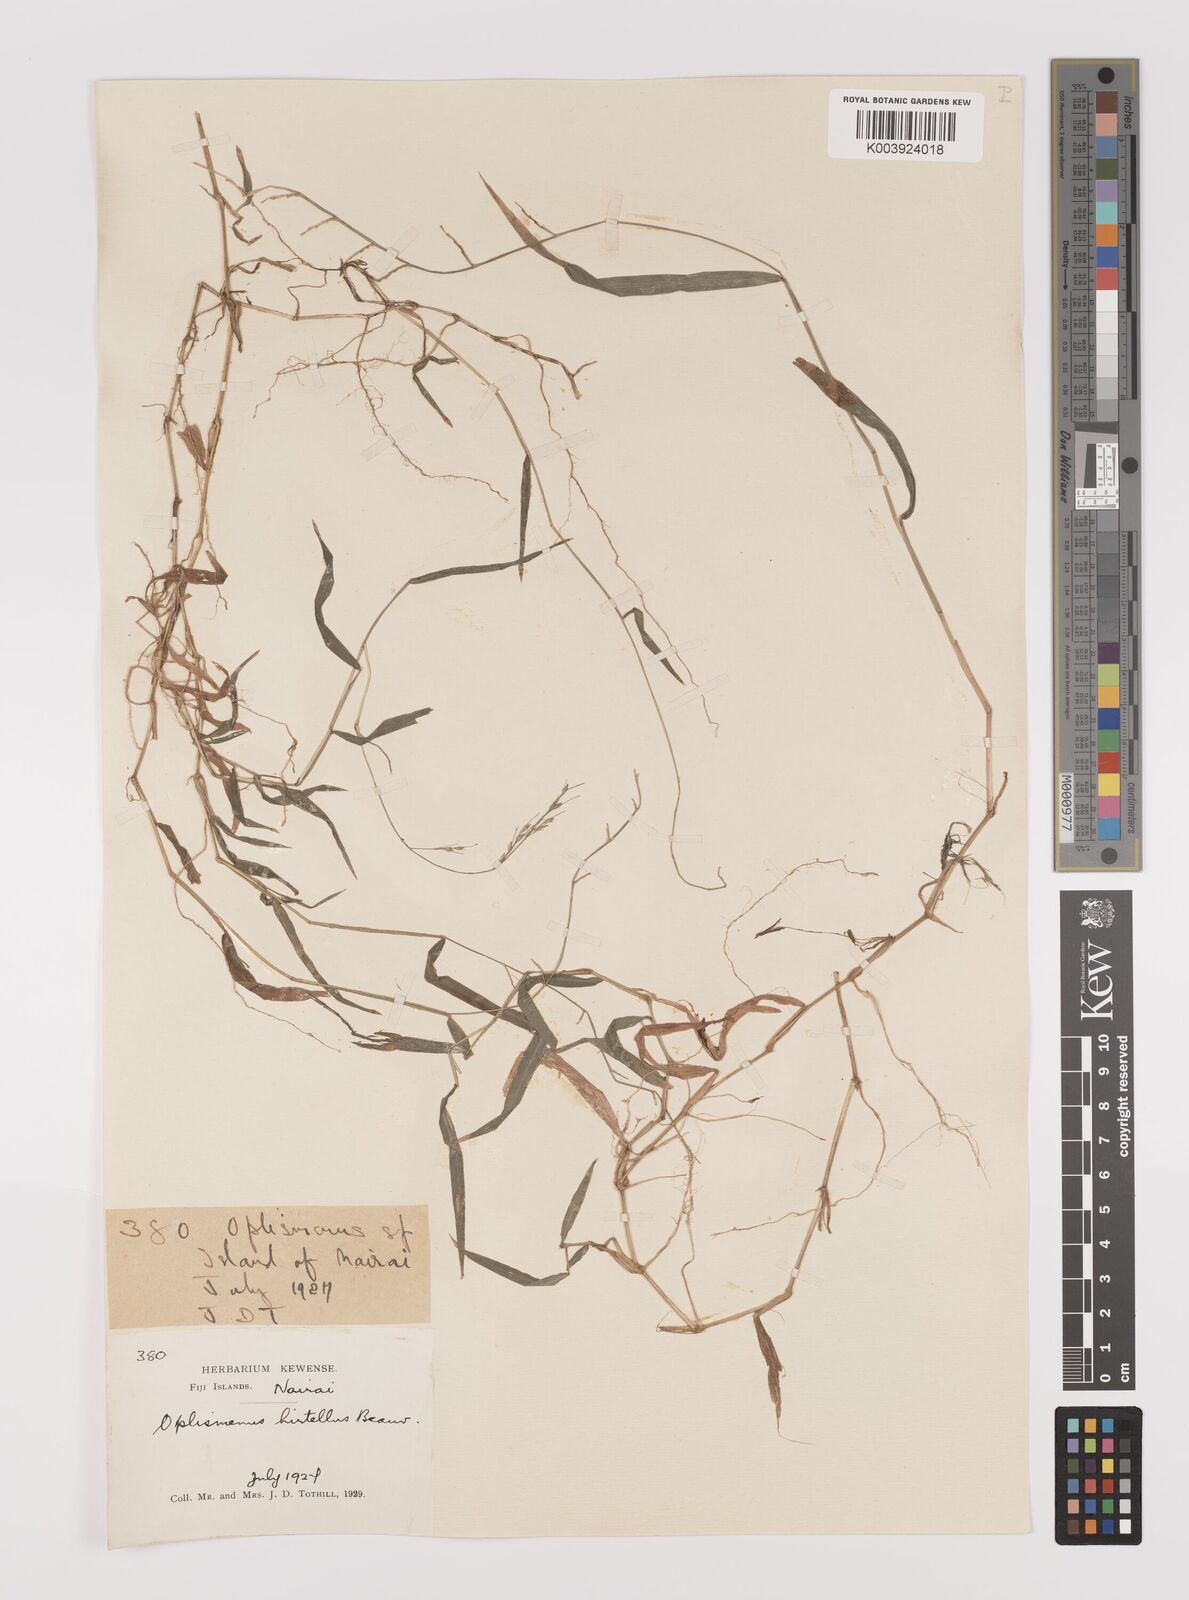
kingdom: Plantae
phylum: Tracheophyta
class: Liliopsida
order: Poales
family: Poaceae
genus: Oplismenus
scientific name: Oplismenus hirtellus
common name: Basketgrass
